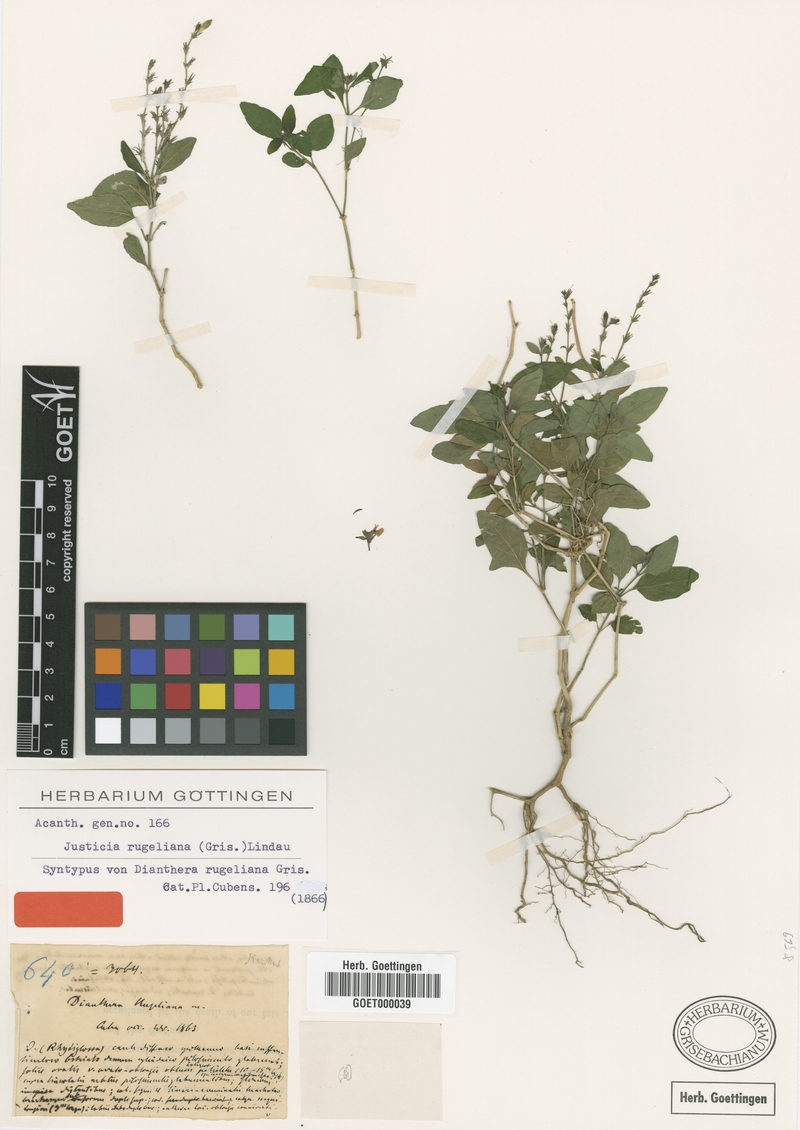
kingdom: Plantae
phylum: Tracheophyta
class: Magnoliopsida
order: Lamiales
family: Acanthaceae
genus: Dianthera
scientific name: Dianthera rugeliana
